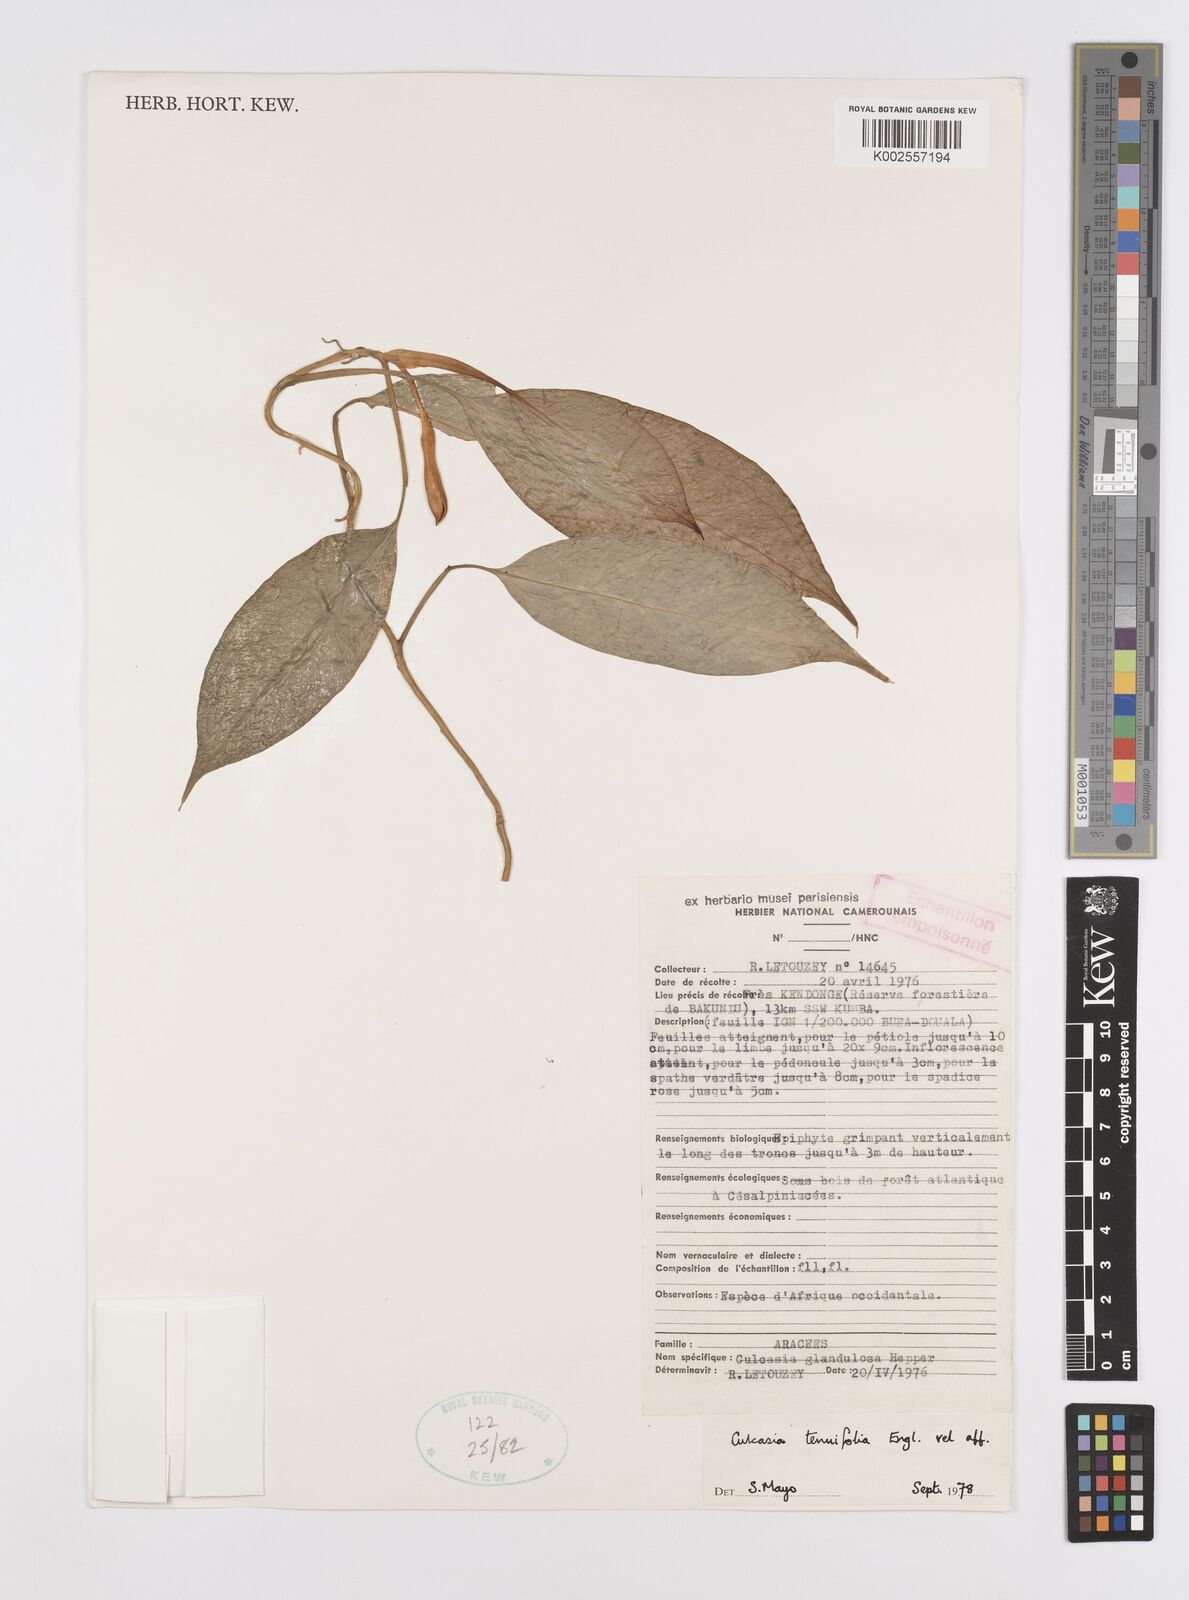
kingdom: Plantae
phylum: Tracheophyta
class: Liliopsida
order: Alismatales
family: Araceae
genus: Culcasia
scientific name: Culcasia tenuifolia
